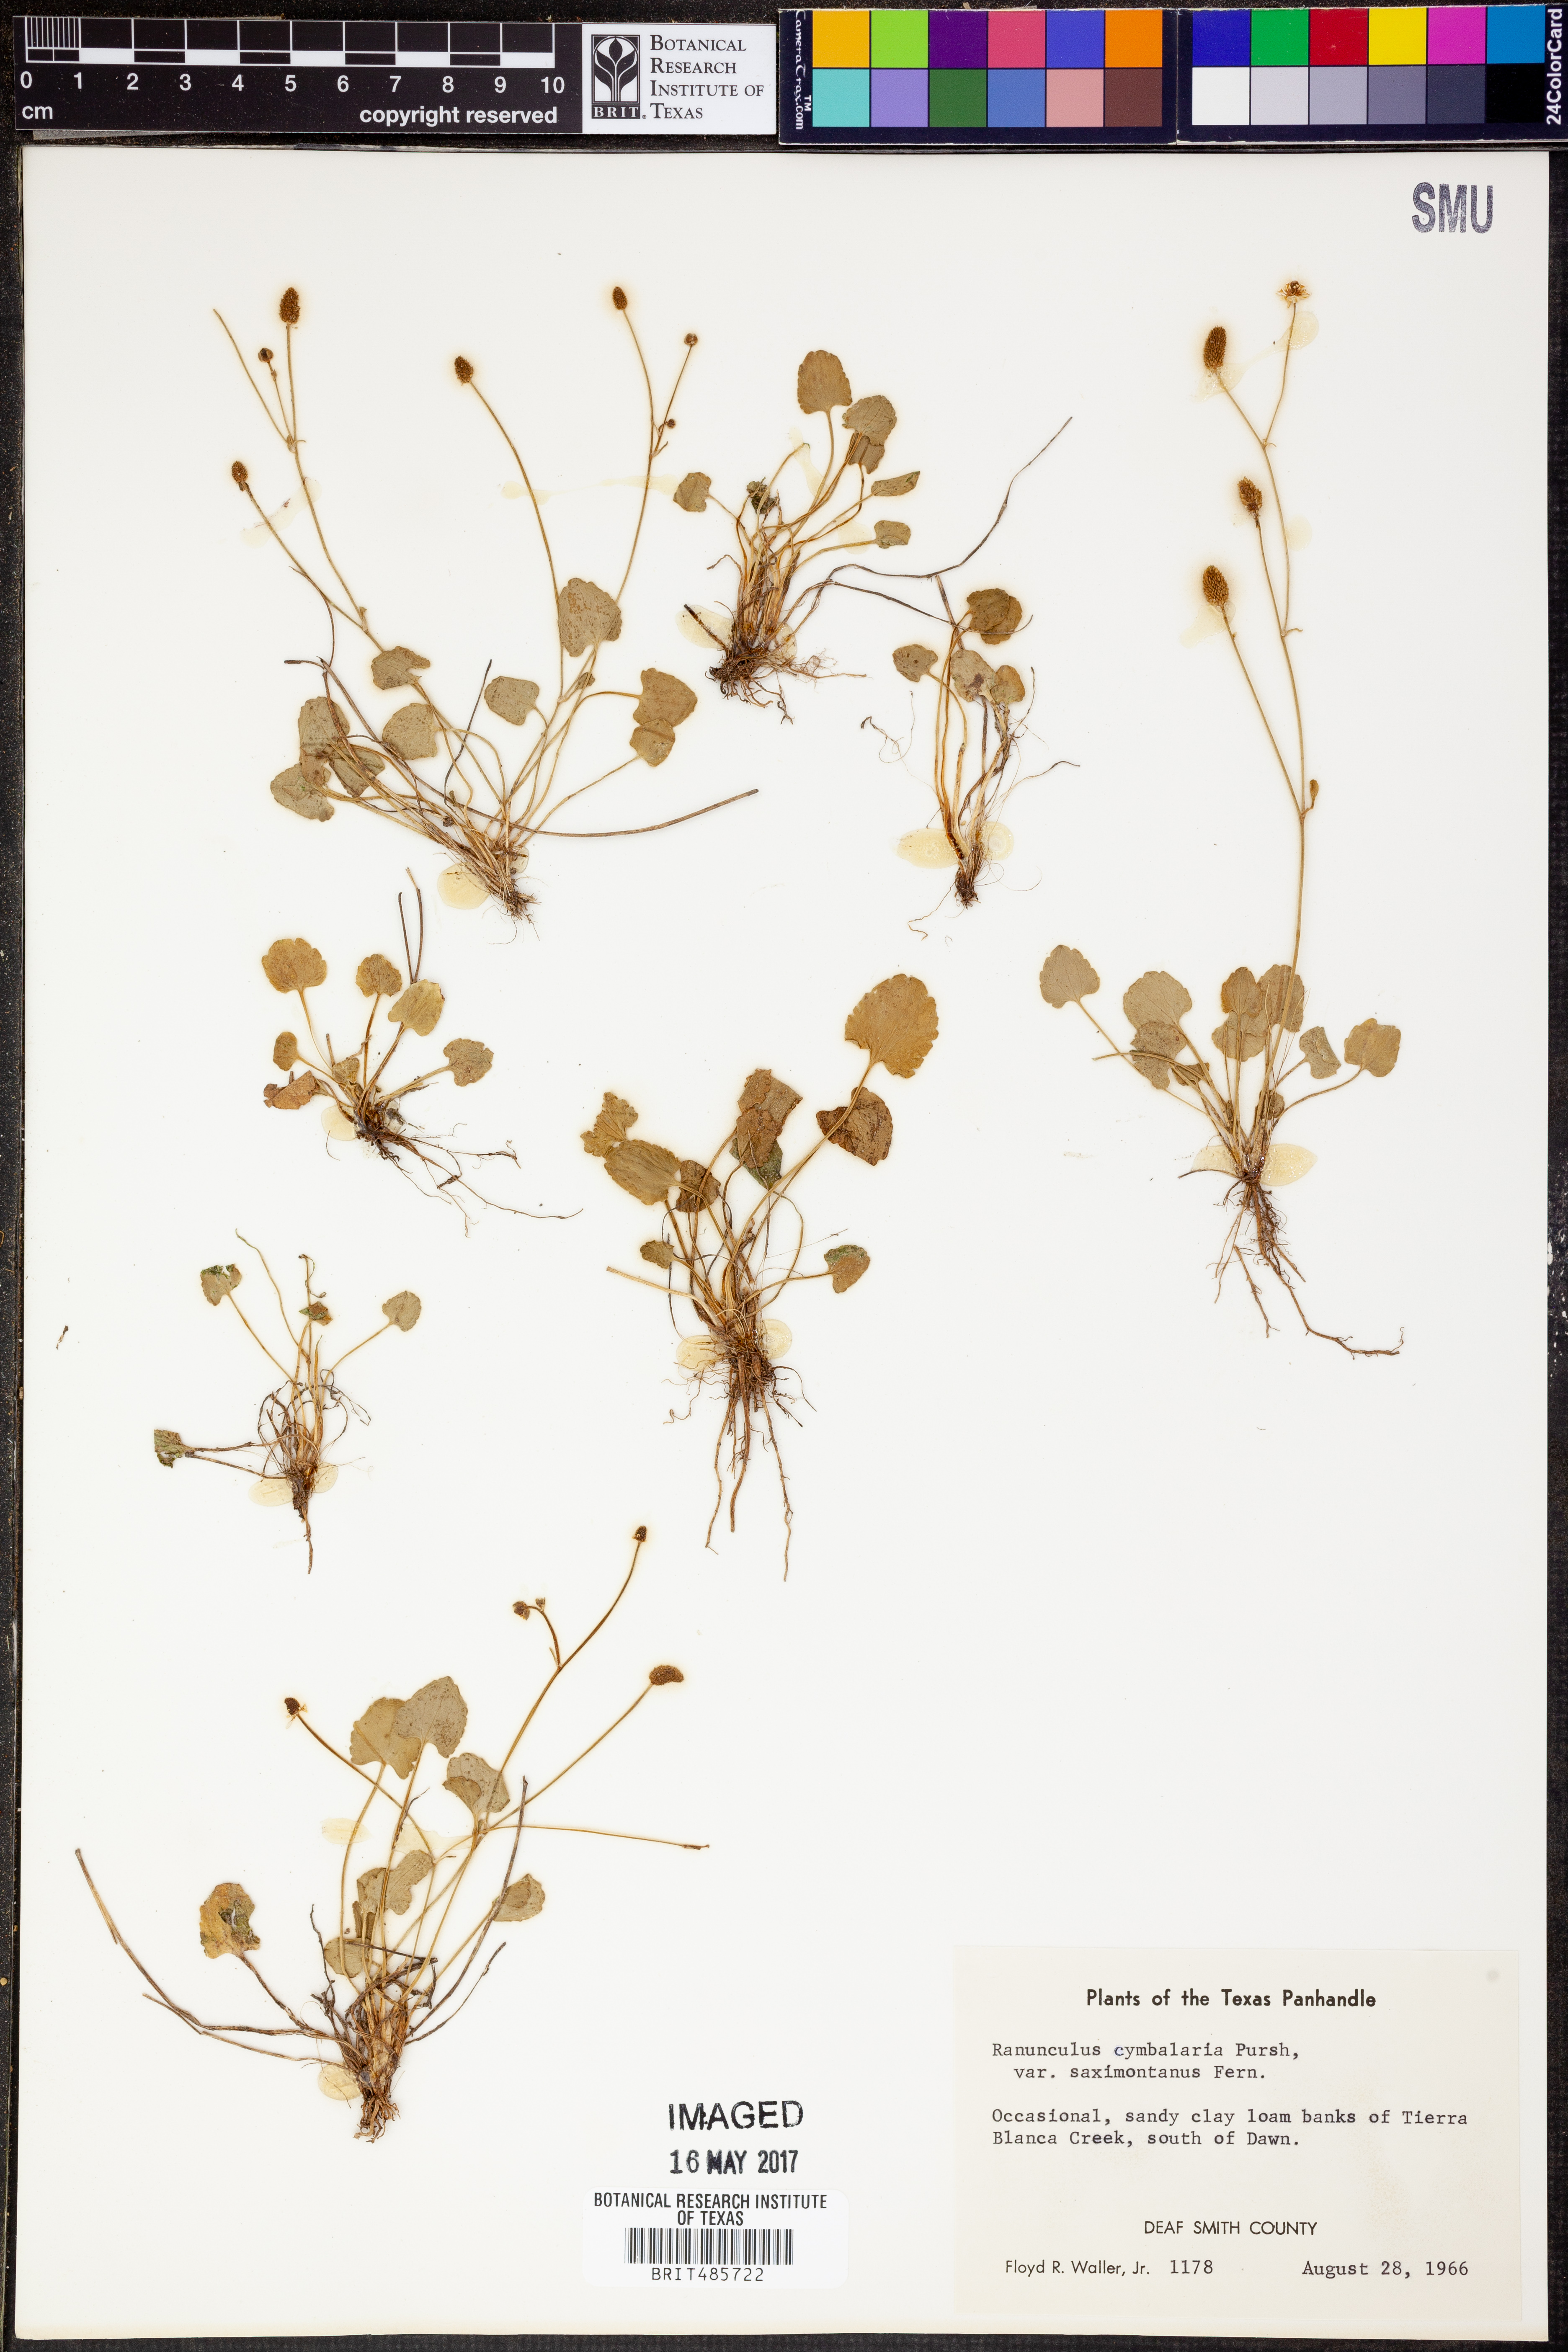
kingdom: Plantae
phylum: Tracheophyta
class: Magnoliopsida
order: Ranunculales
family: Ranunculaceae
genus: Halerpestes
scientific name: Halerpestes cymbalaria
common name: Seaside crowfoot
